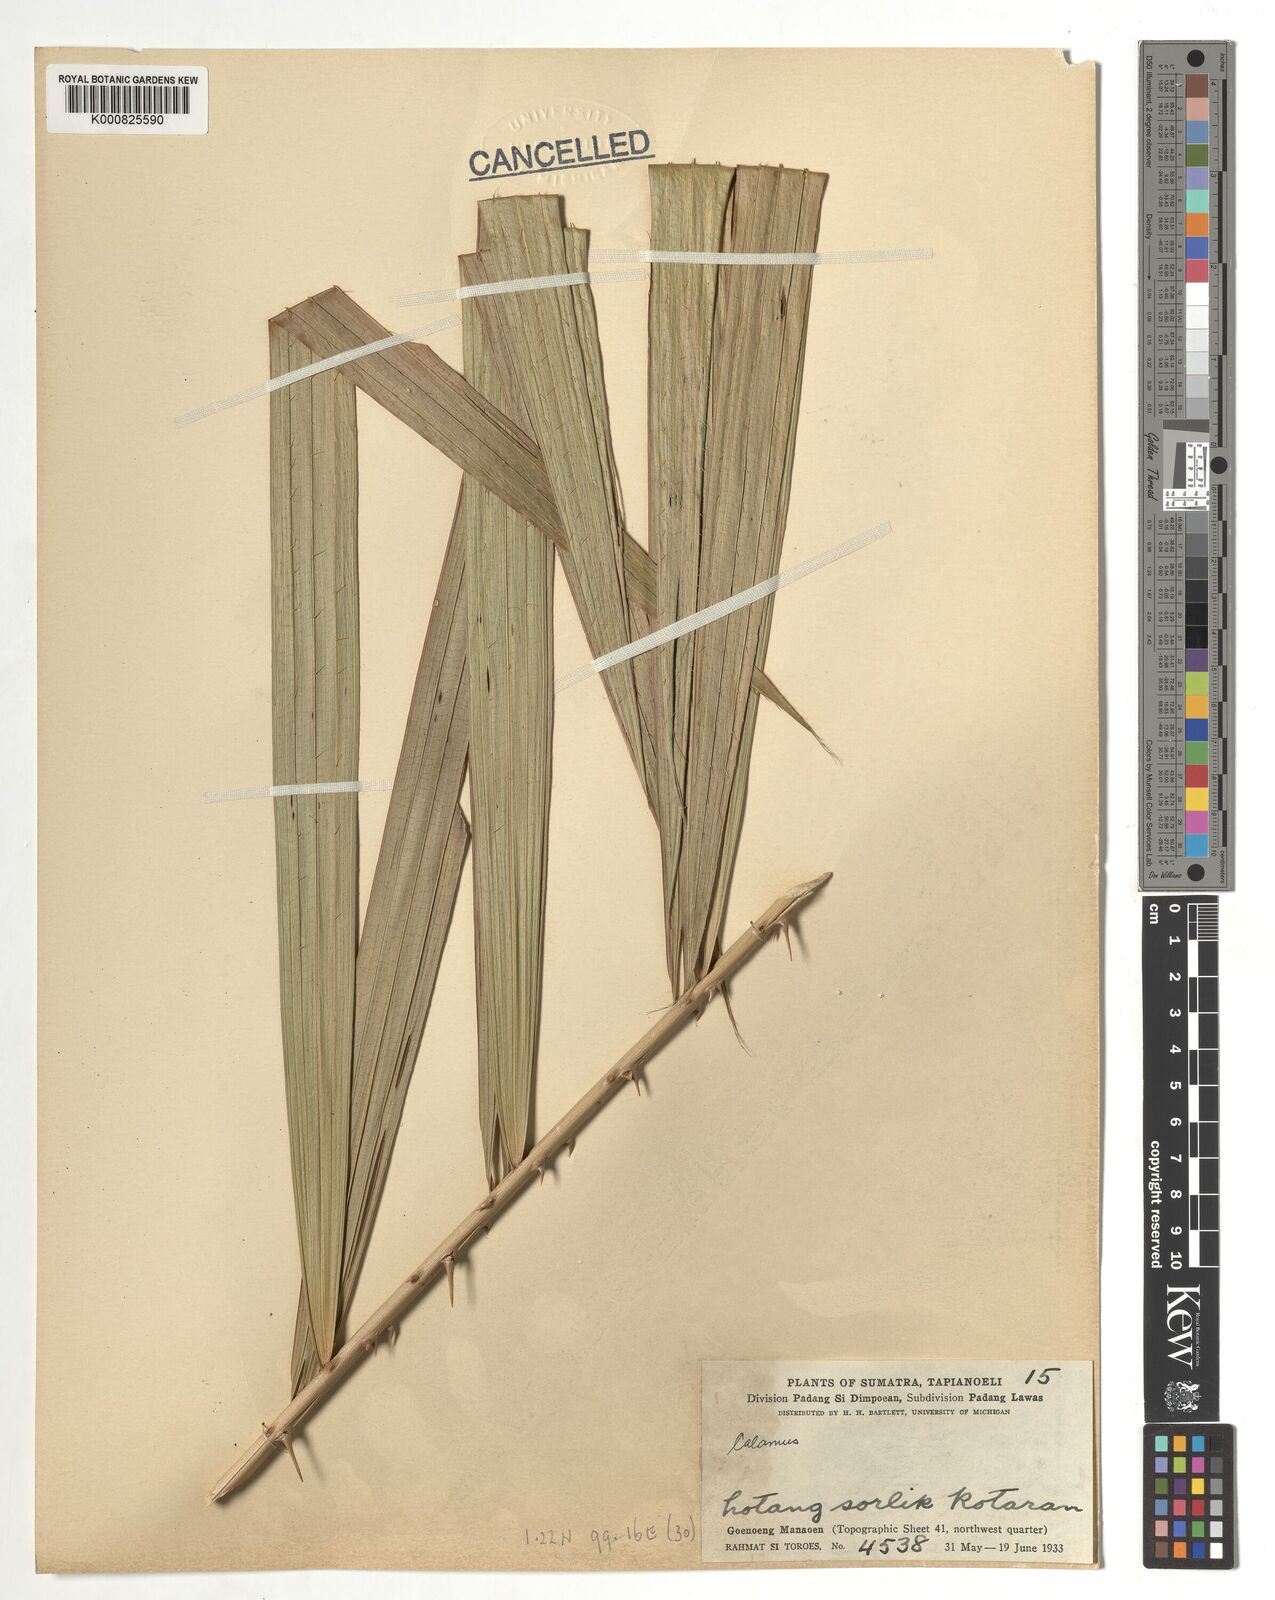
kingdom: Plantae
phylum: Tracheophyta
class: Liliopsida
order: Arecales
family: Arecaceae
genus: Calamus
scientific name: Calamus
